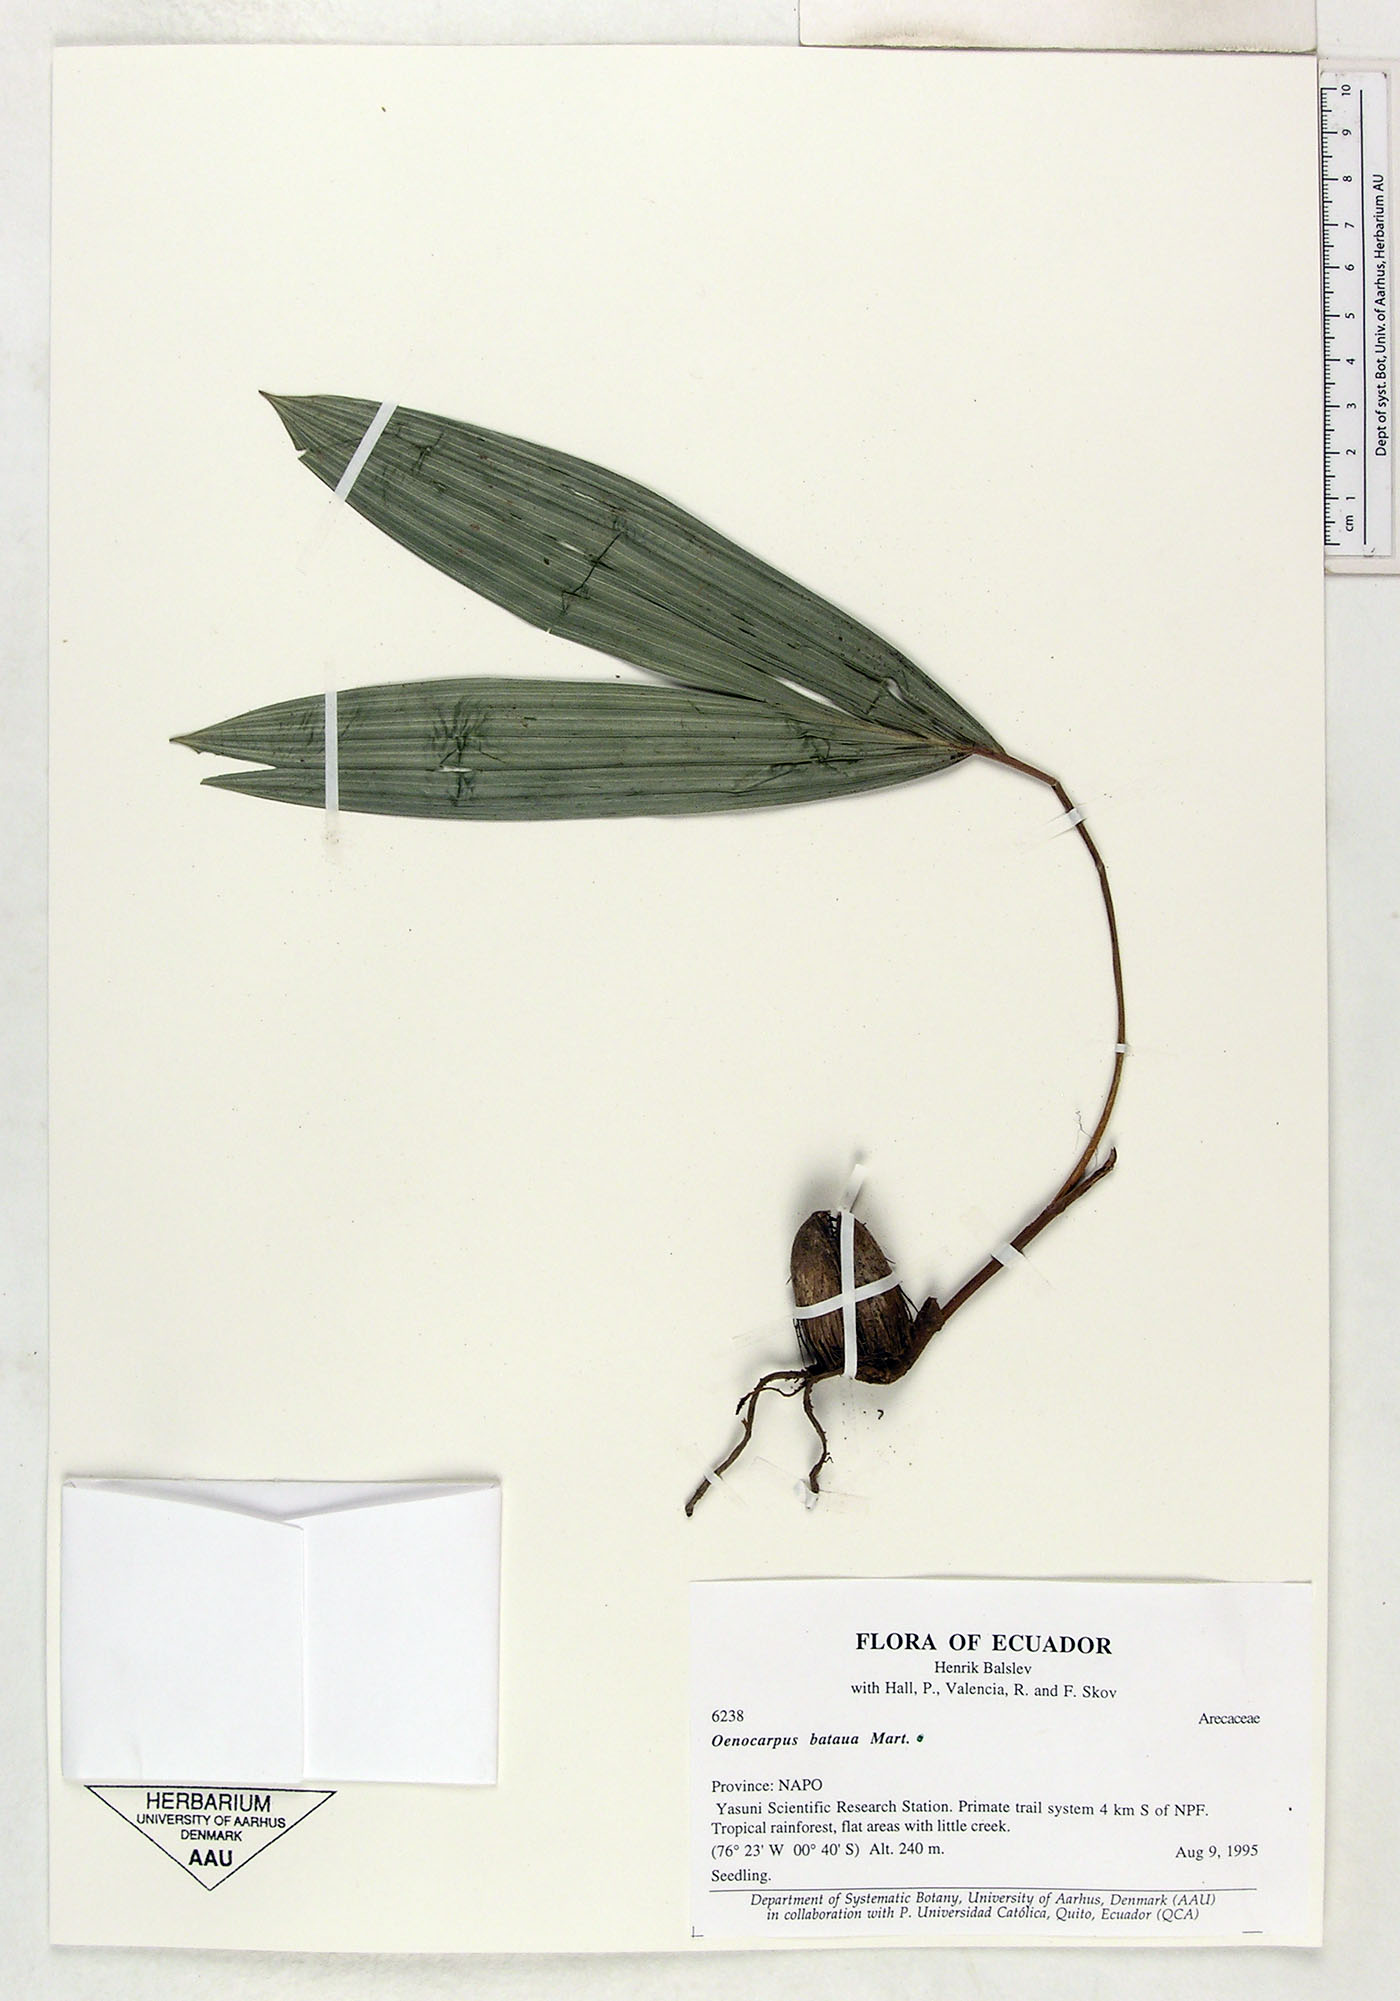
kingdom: Plantae
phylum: Tracheophyta
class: Liliopsida
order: Arecales
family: Arecaceae
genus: Oenocarpus
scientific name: Oenocarpus bataua
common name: Bataua palm
